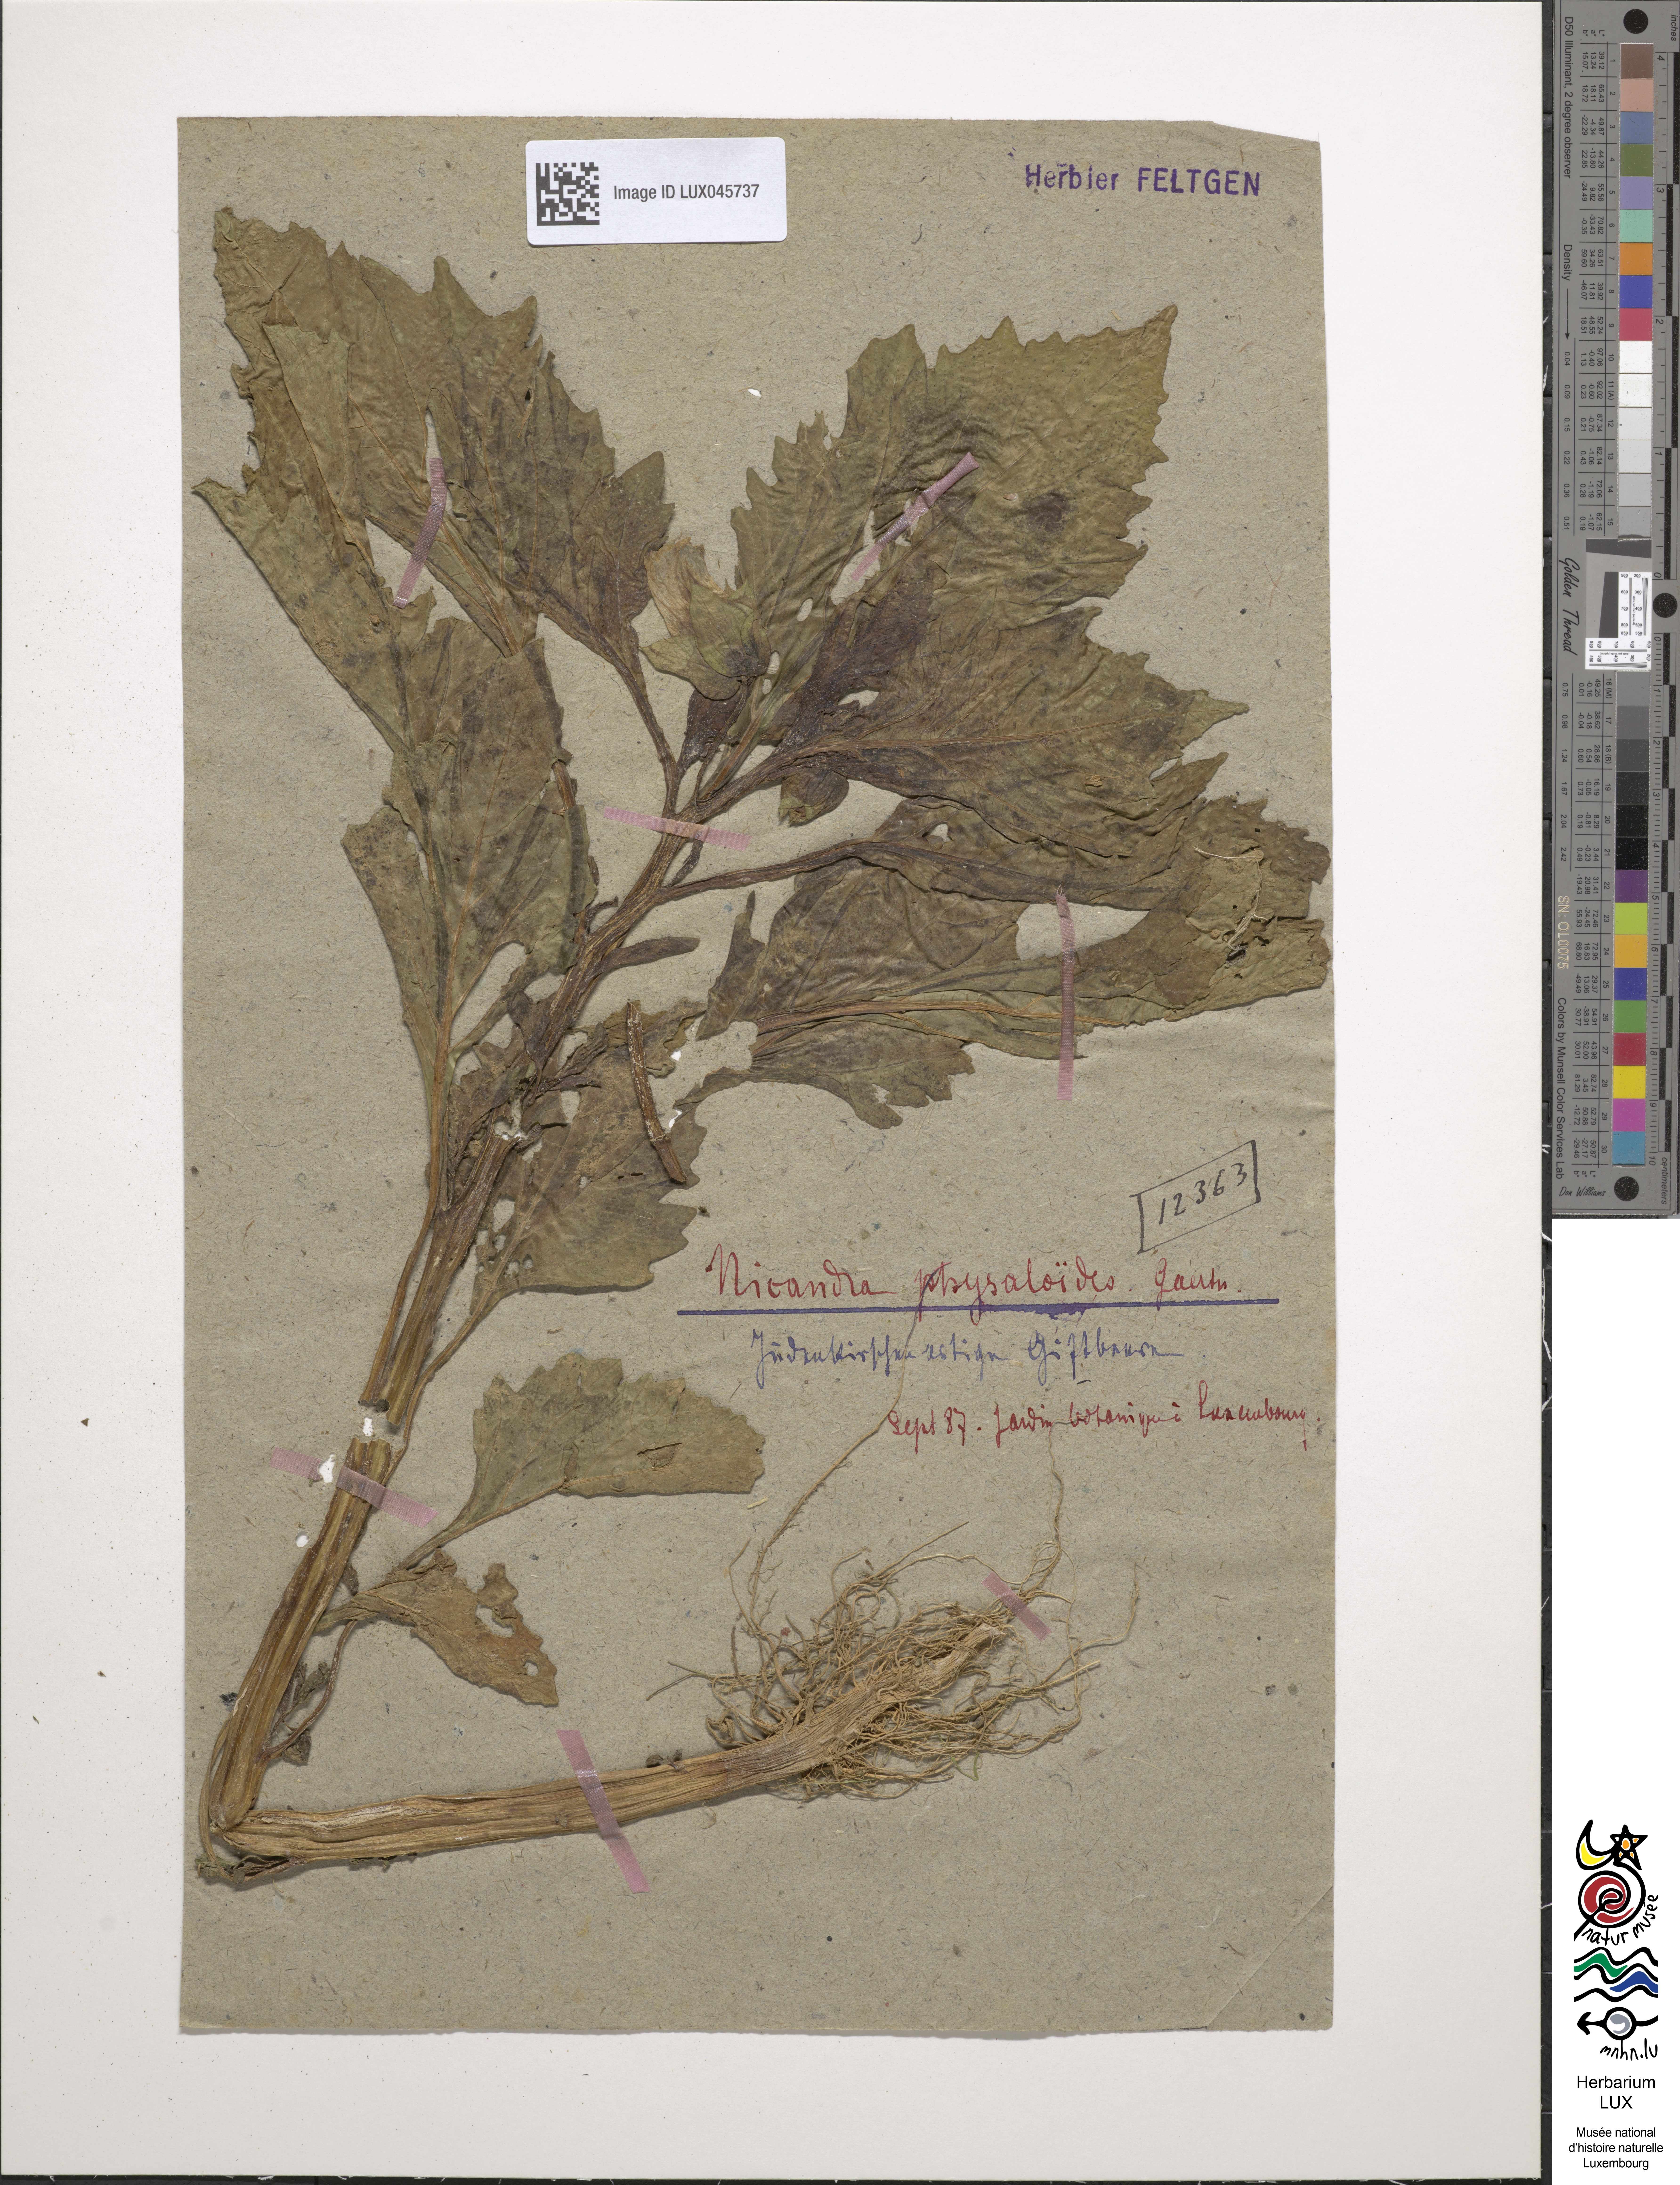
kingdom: Plantae
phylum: Tracheophyta
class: Magnoliopsida
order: Solanales
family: Solanaceae
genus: Physochlaina
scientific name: Physochlaina physaloides
